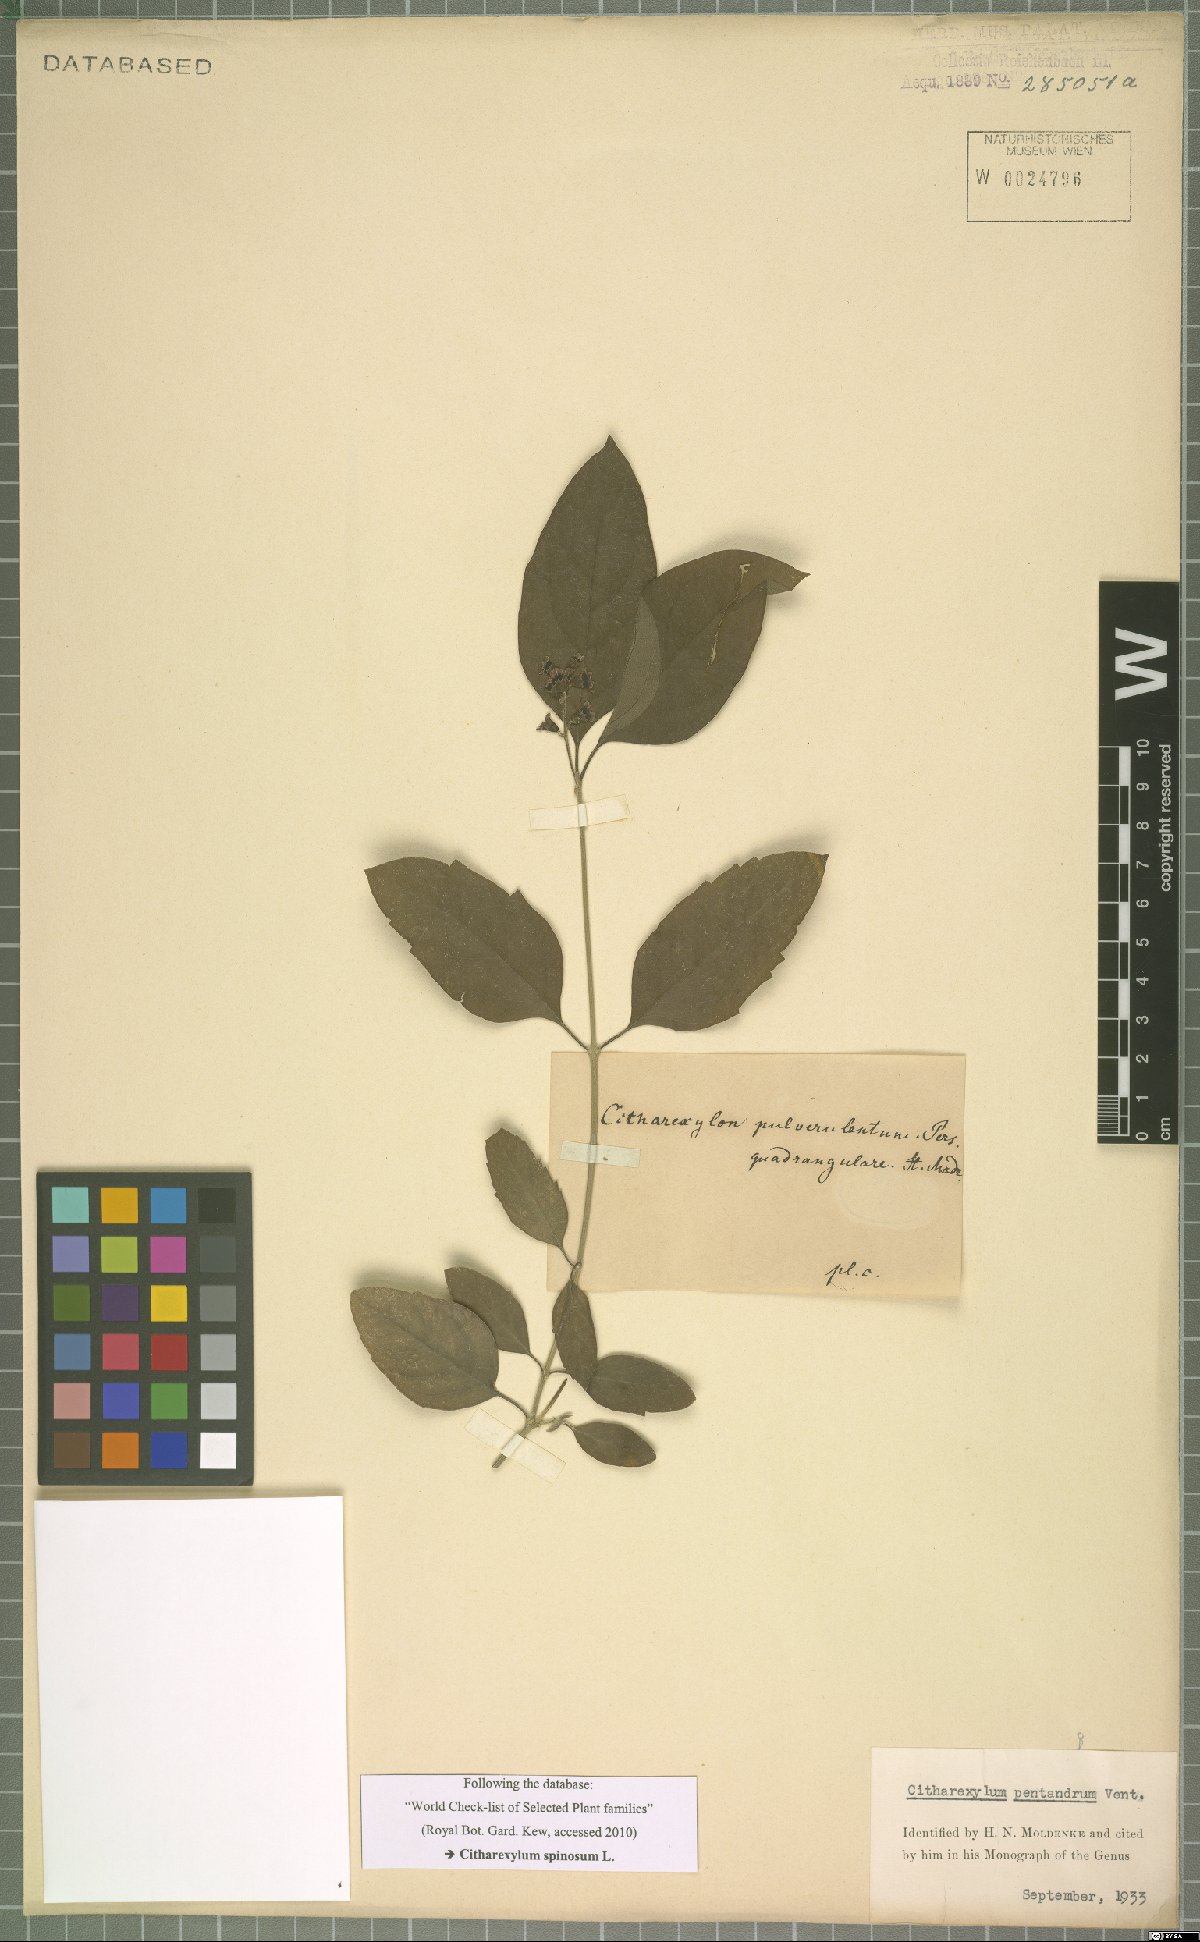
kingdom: Plantae
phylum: Tracheophyta
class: Magnoliopsida
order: Lamiales
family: Verbenaceae
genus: Citharexylum
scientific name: Citharexylum spinosum
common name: Fiddlewood
